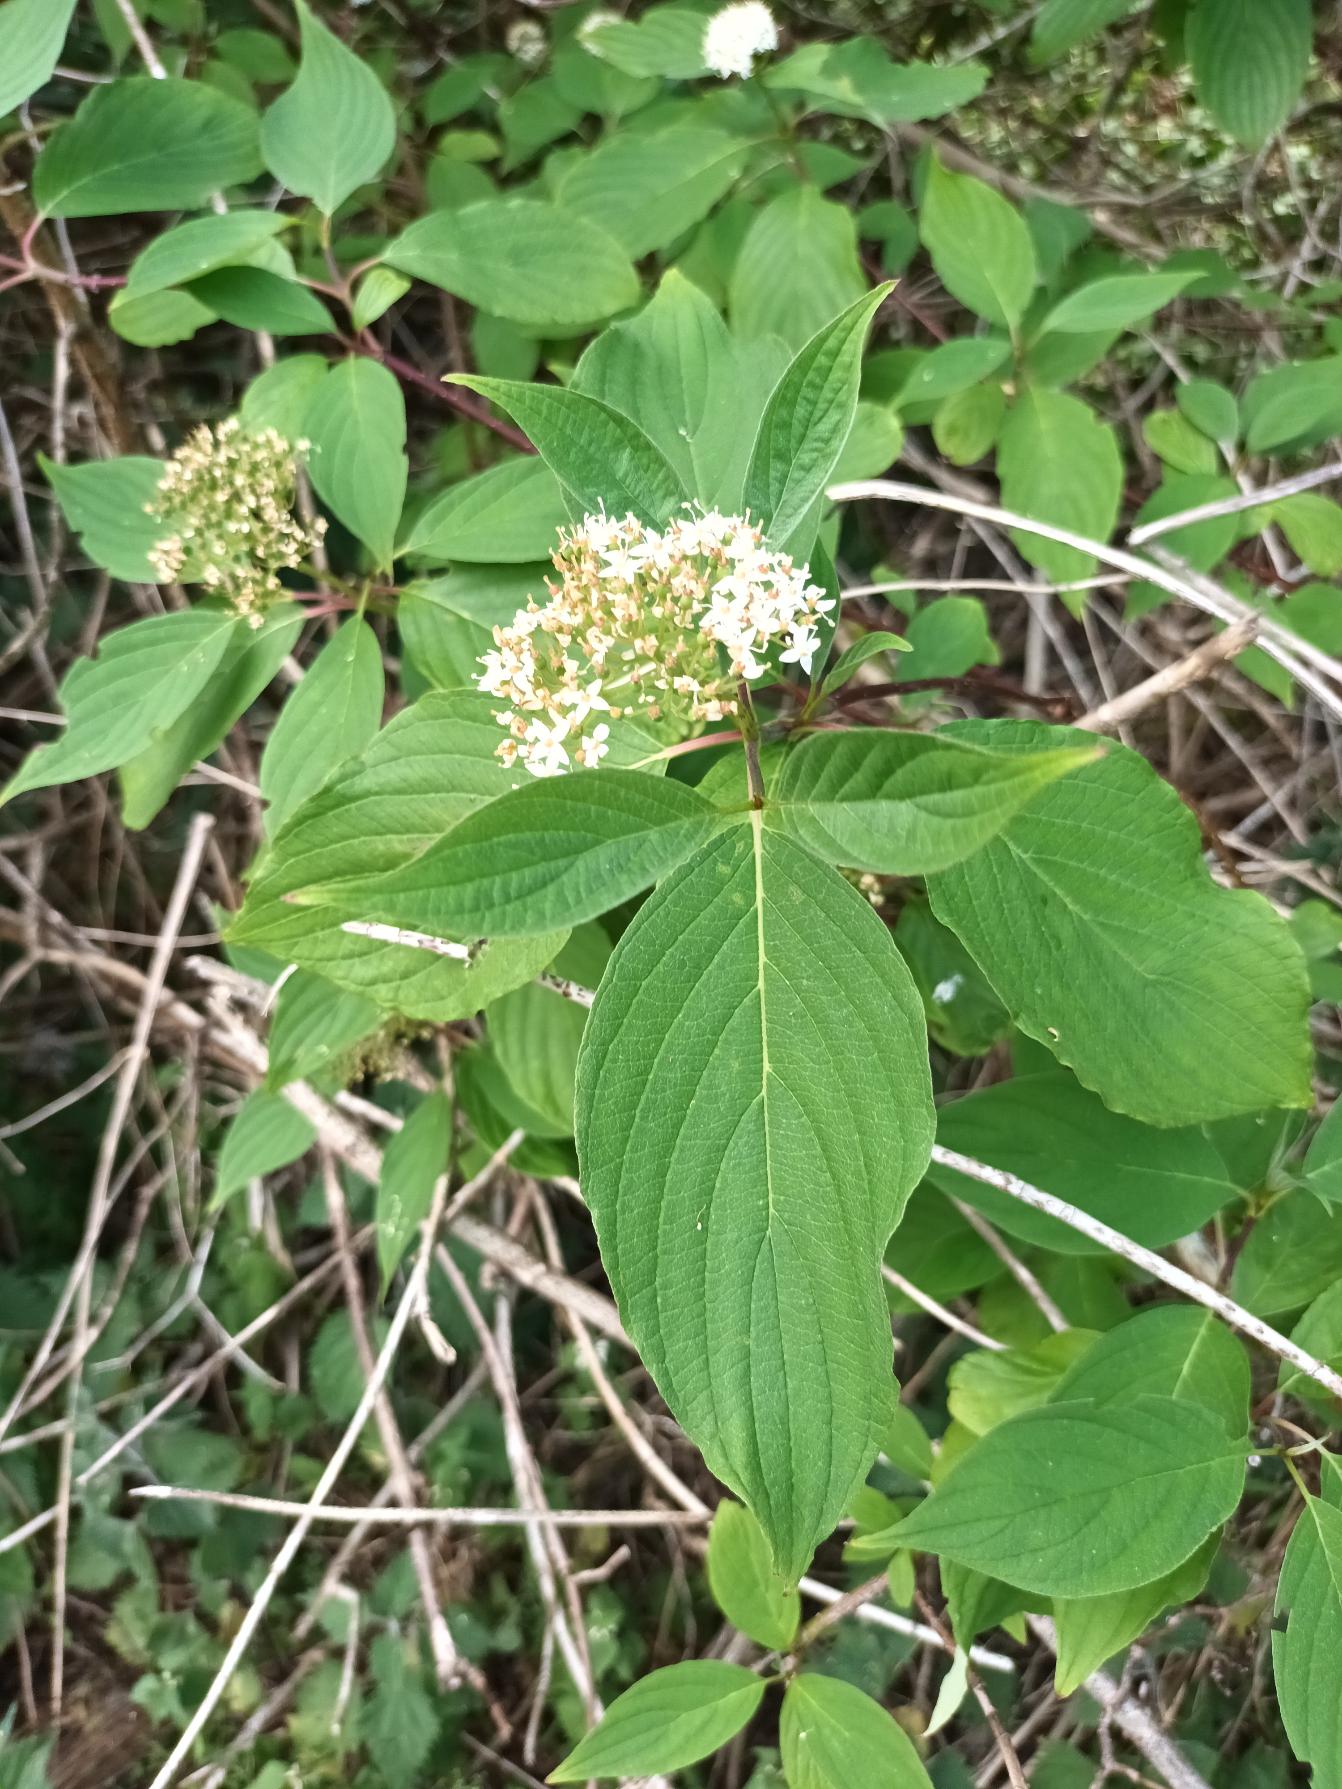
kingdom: Plantae
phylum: Tracheophyta
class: Magnoliopsida
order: Cornales
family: Cornaceae
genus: Cornus
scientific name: Cornus sericea
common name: Krybende kornel
